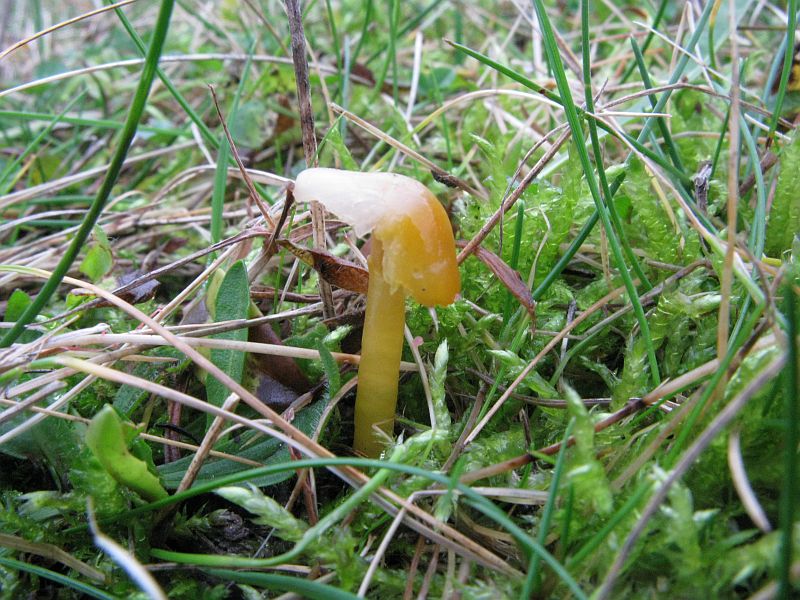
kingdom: Fungi
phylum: Basidiomycota
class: Agaricomycetes
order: Agaricales
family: Hygrophoraceae
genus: Hygrocybe
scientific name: Hygrocybe chlorophana
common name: gul vokshat
